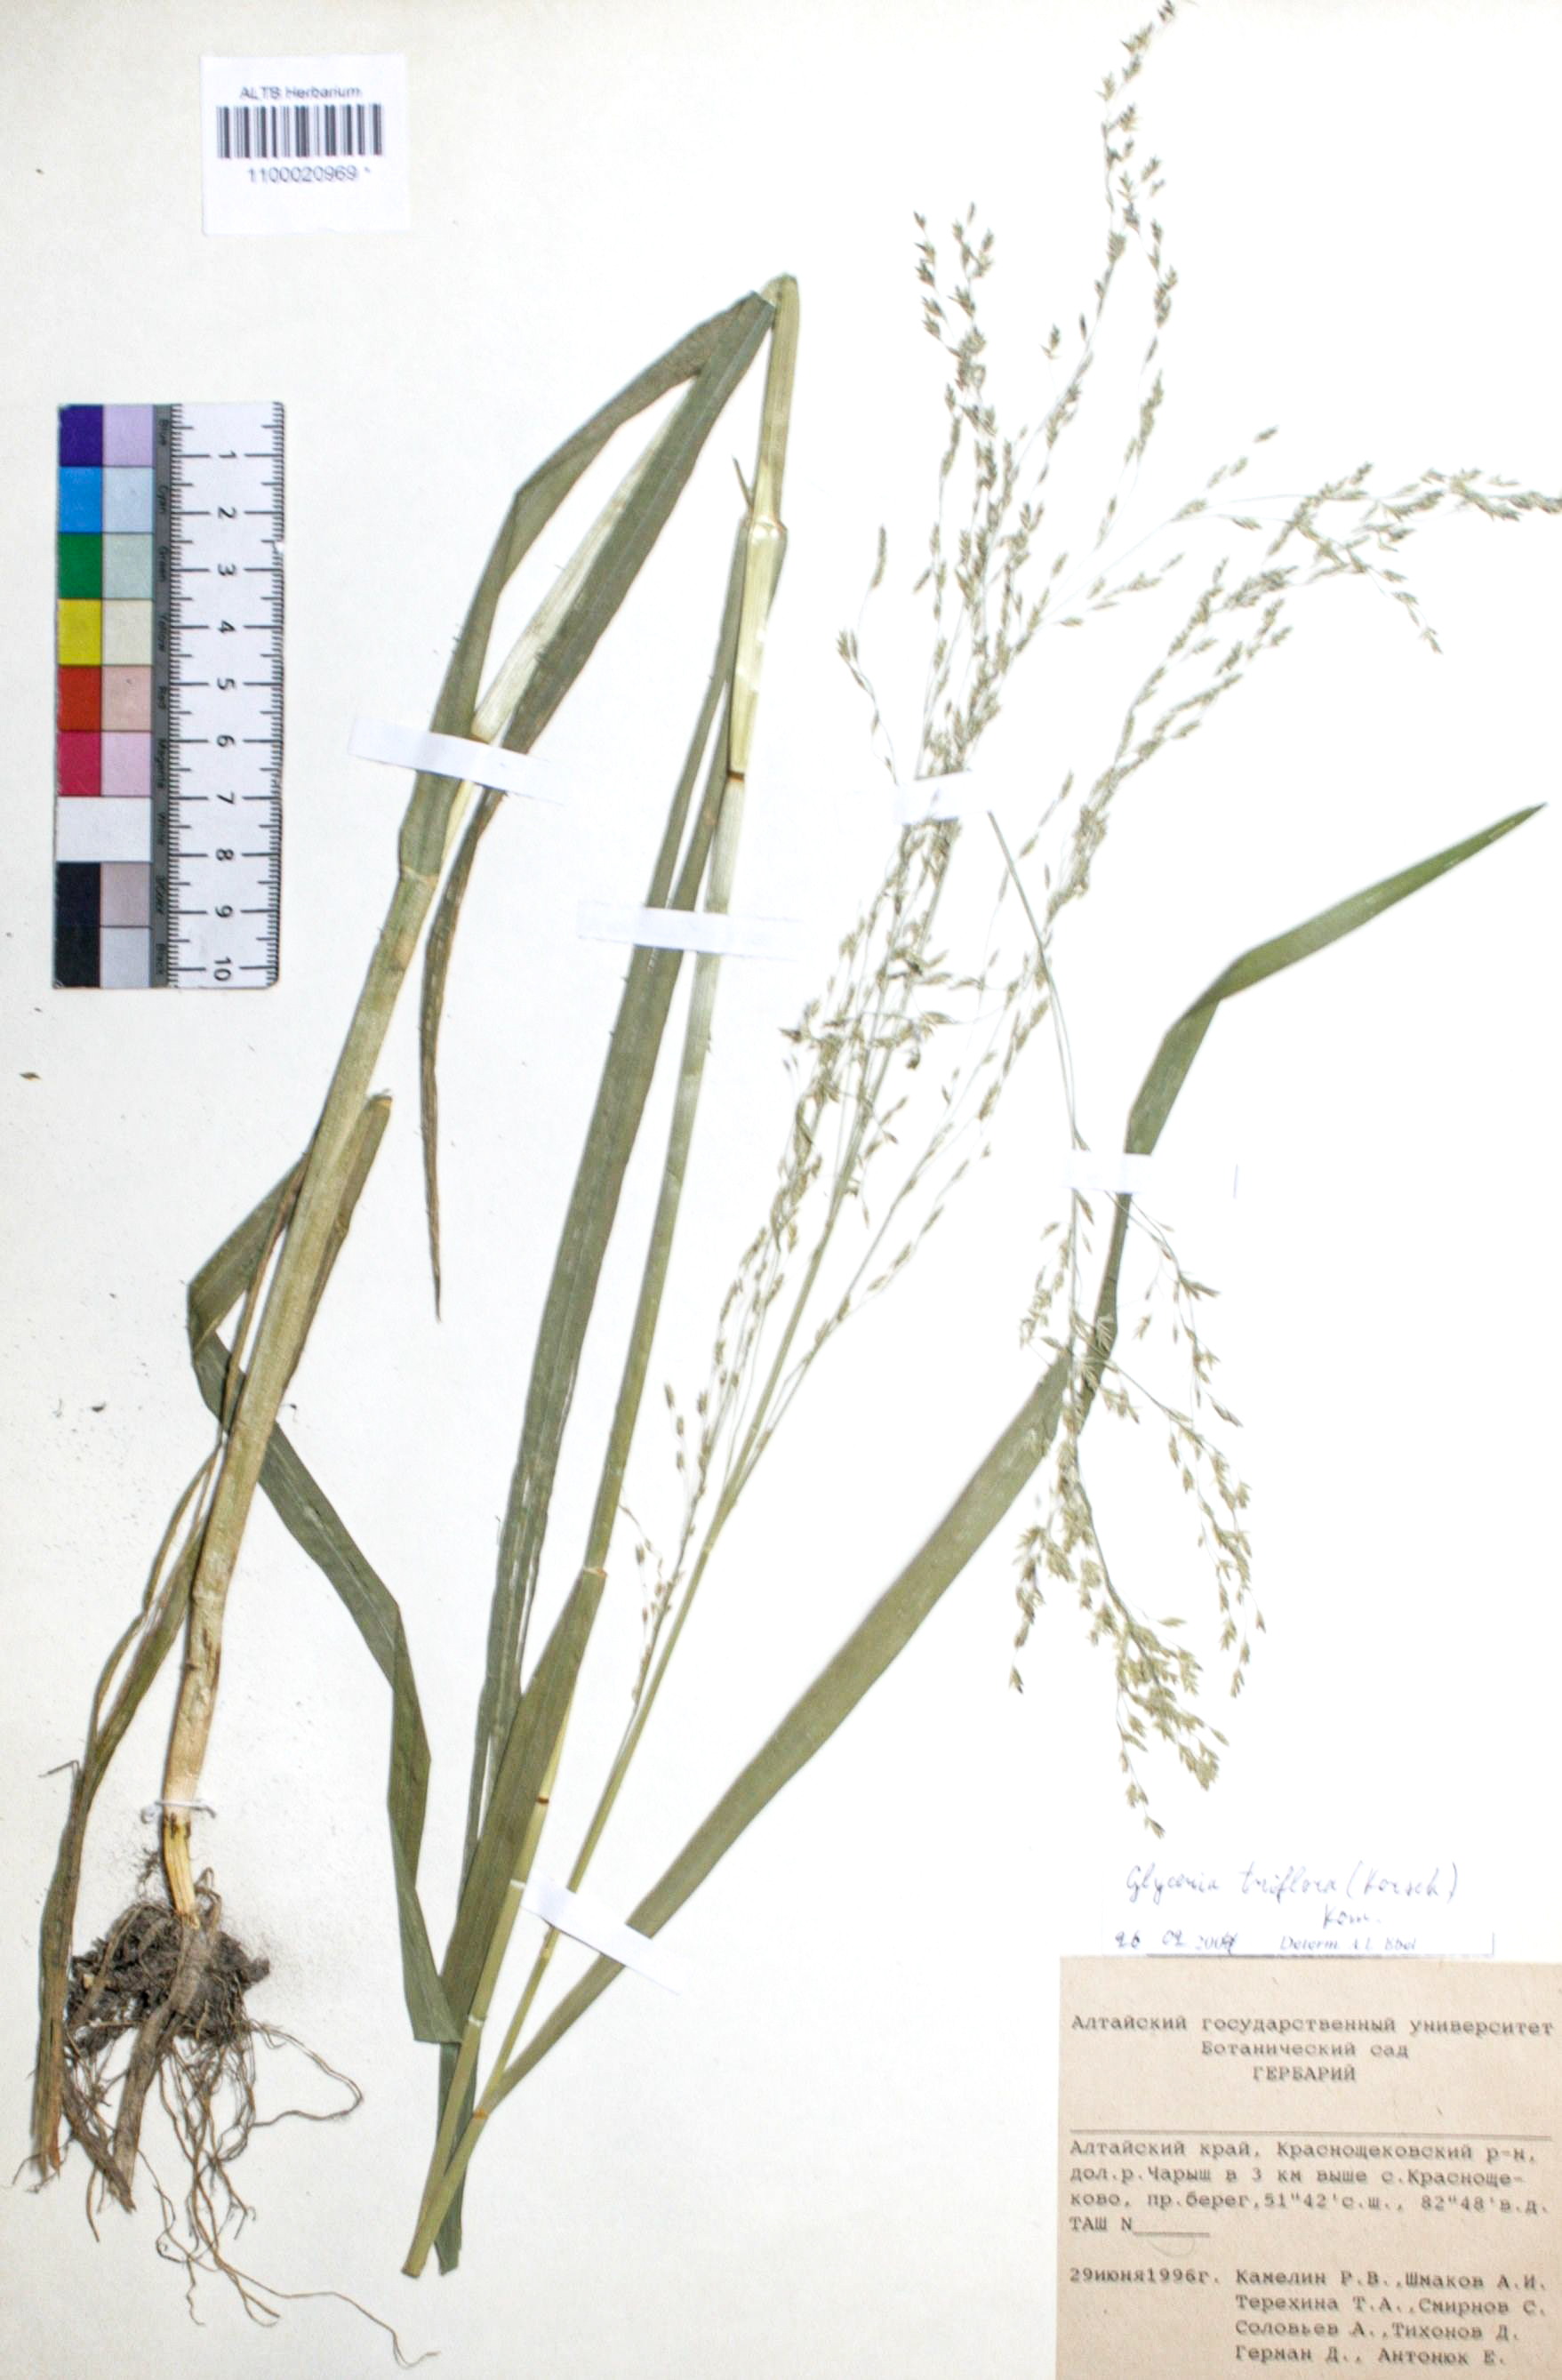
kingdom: Plantae
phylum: Tracheophyta
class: Liliopsida
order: Poales
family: Poaceae
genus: Glyceria
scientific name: Glyceria lithuanica
